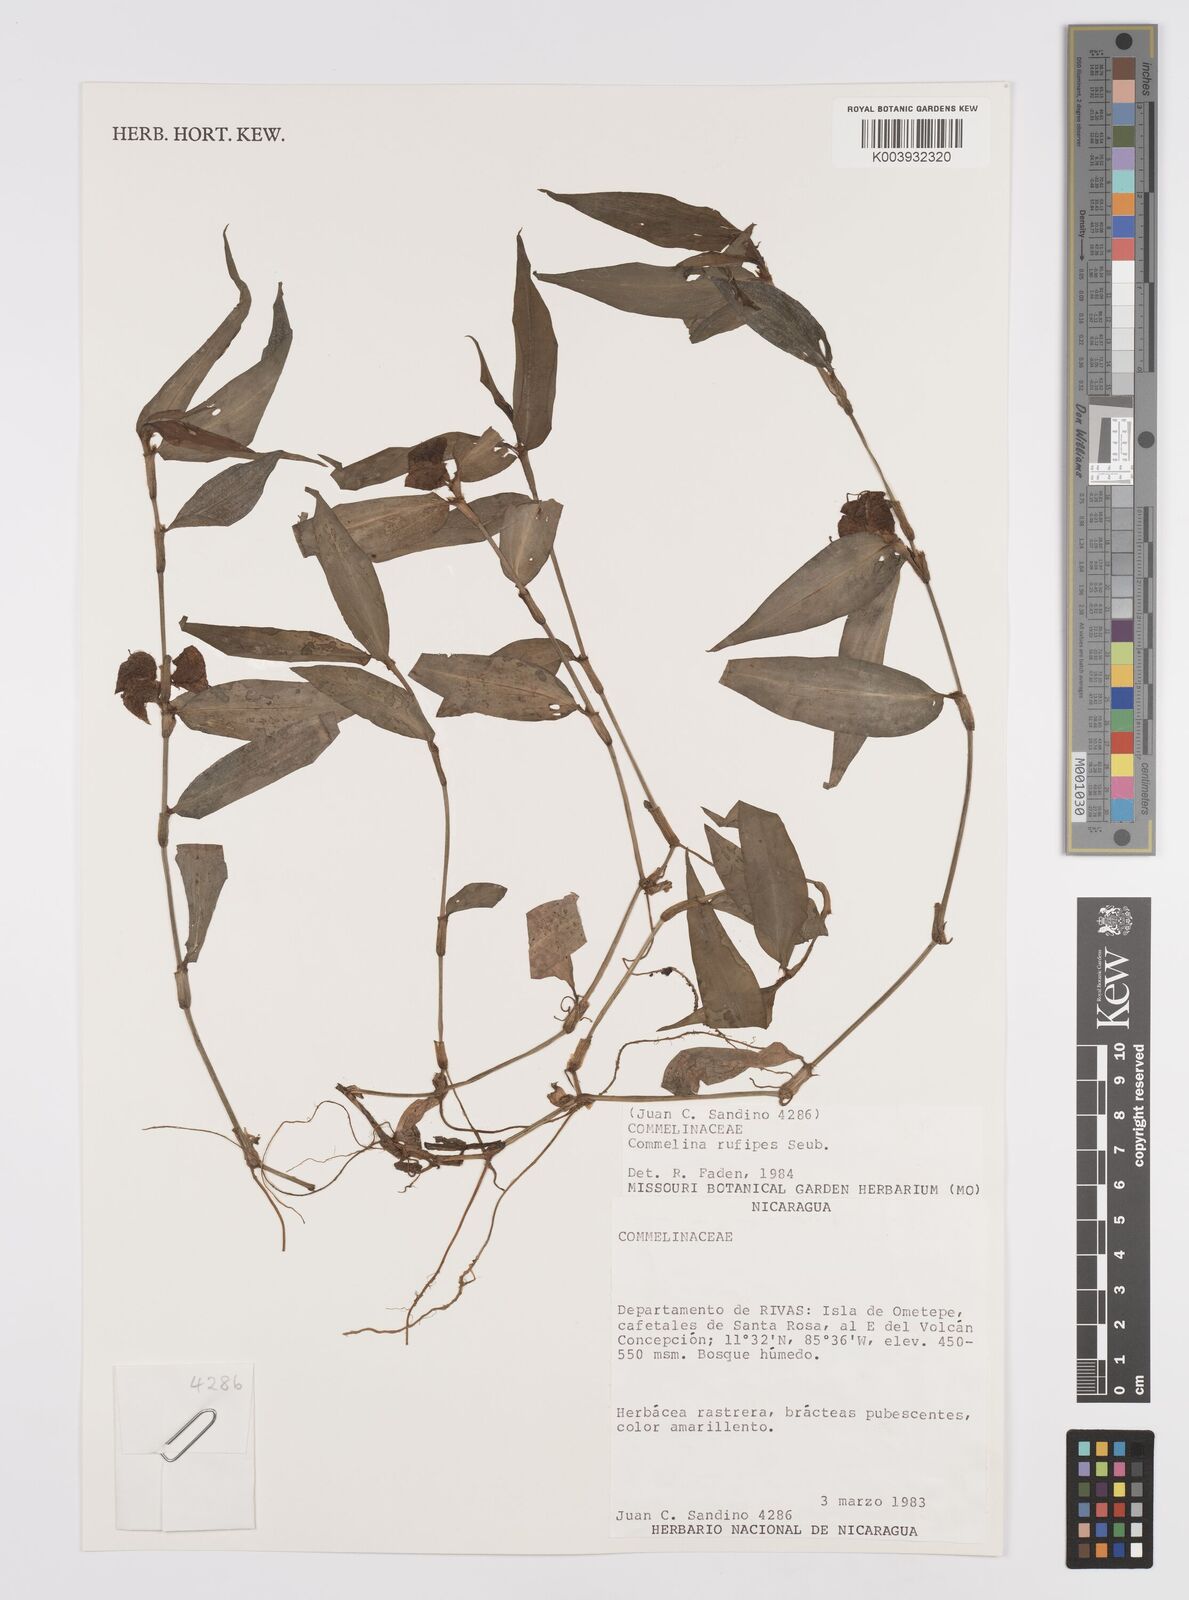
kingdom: Plantae
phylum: Tracheophyta
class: Liliopsida
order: Commelinales
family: Commelinaceae
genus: Commelina
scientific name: Commelina rufipes
